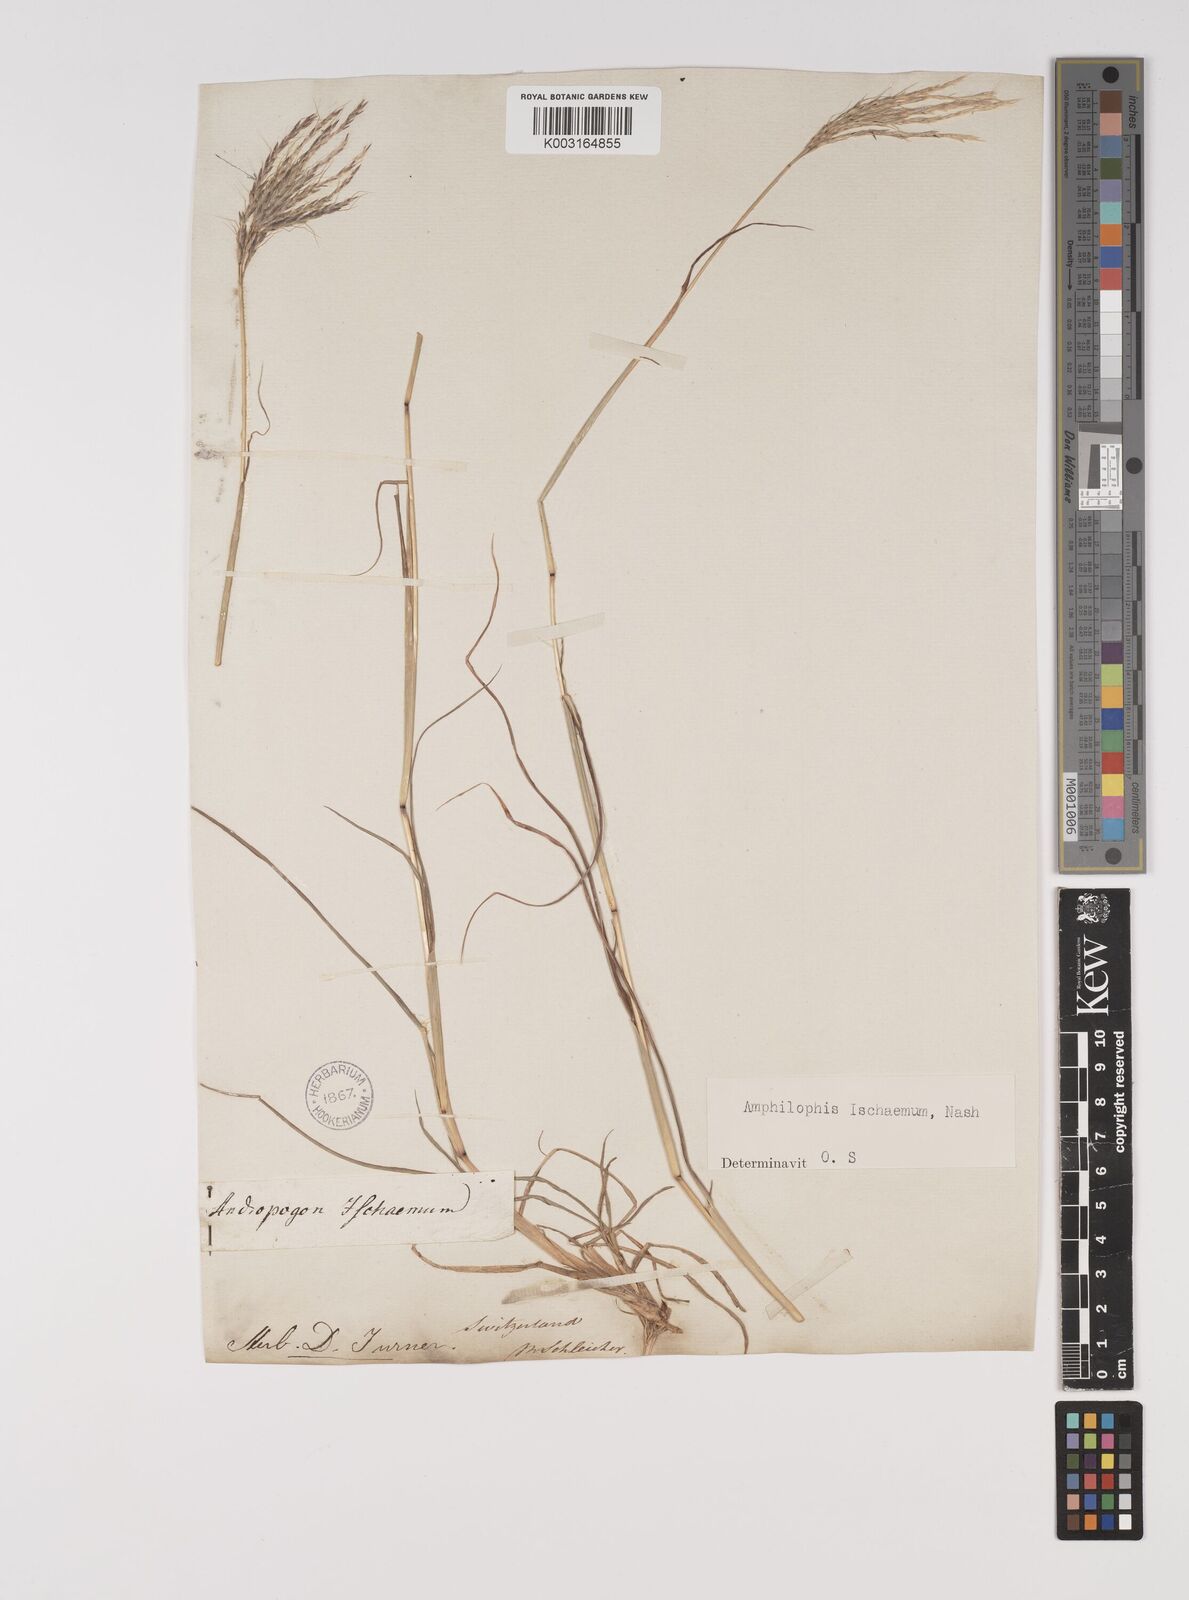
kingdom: Plantae
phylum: Tracheophyta
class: Liliopsida
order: Poales
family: Poaceae
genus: Bothriochloa
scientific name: Bothriochloa ischaemum
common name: Yellow bluestem
